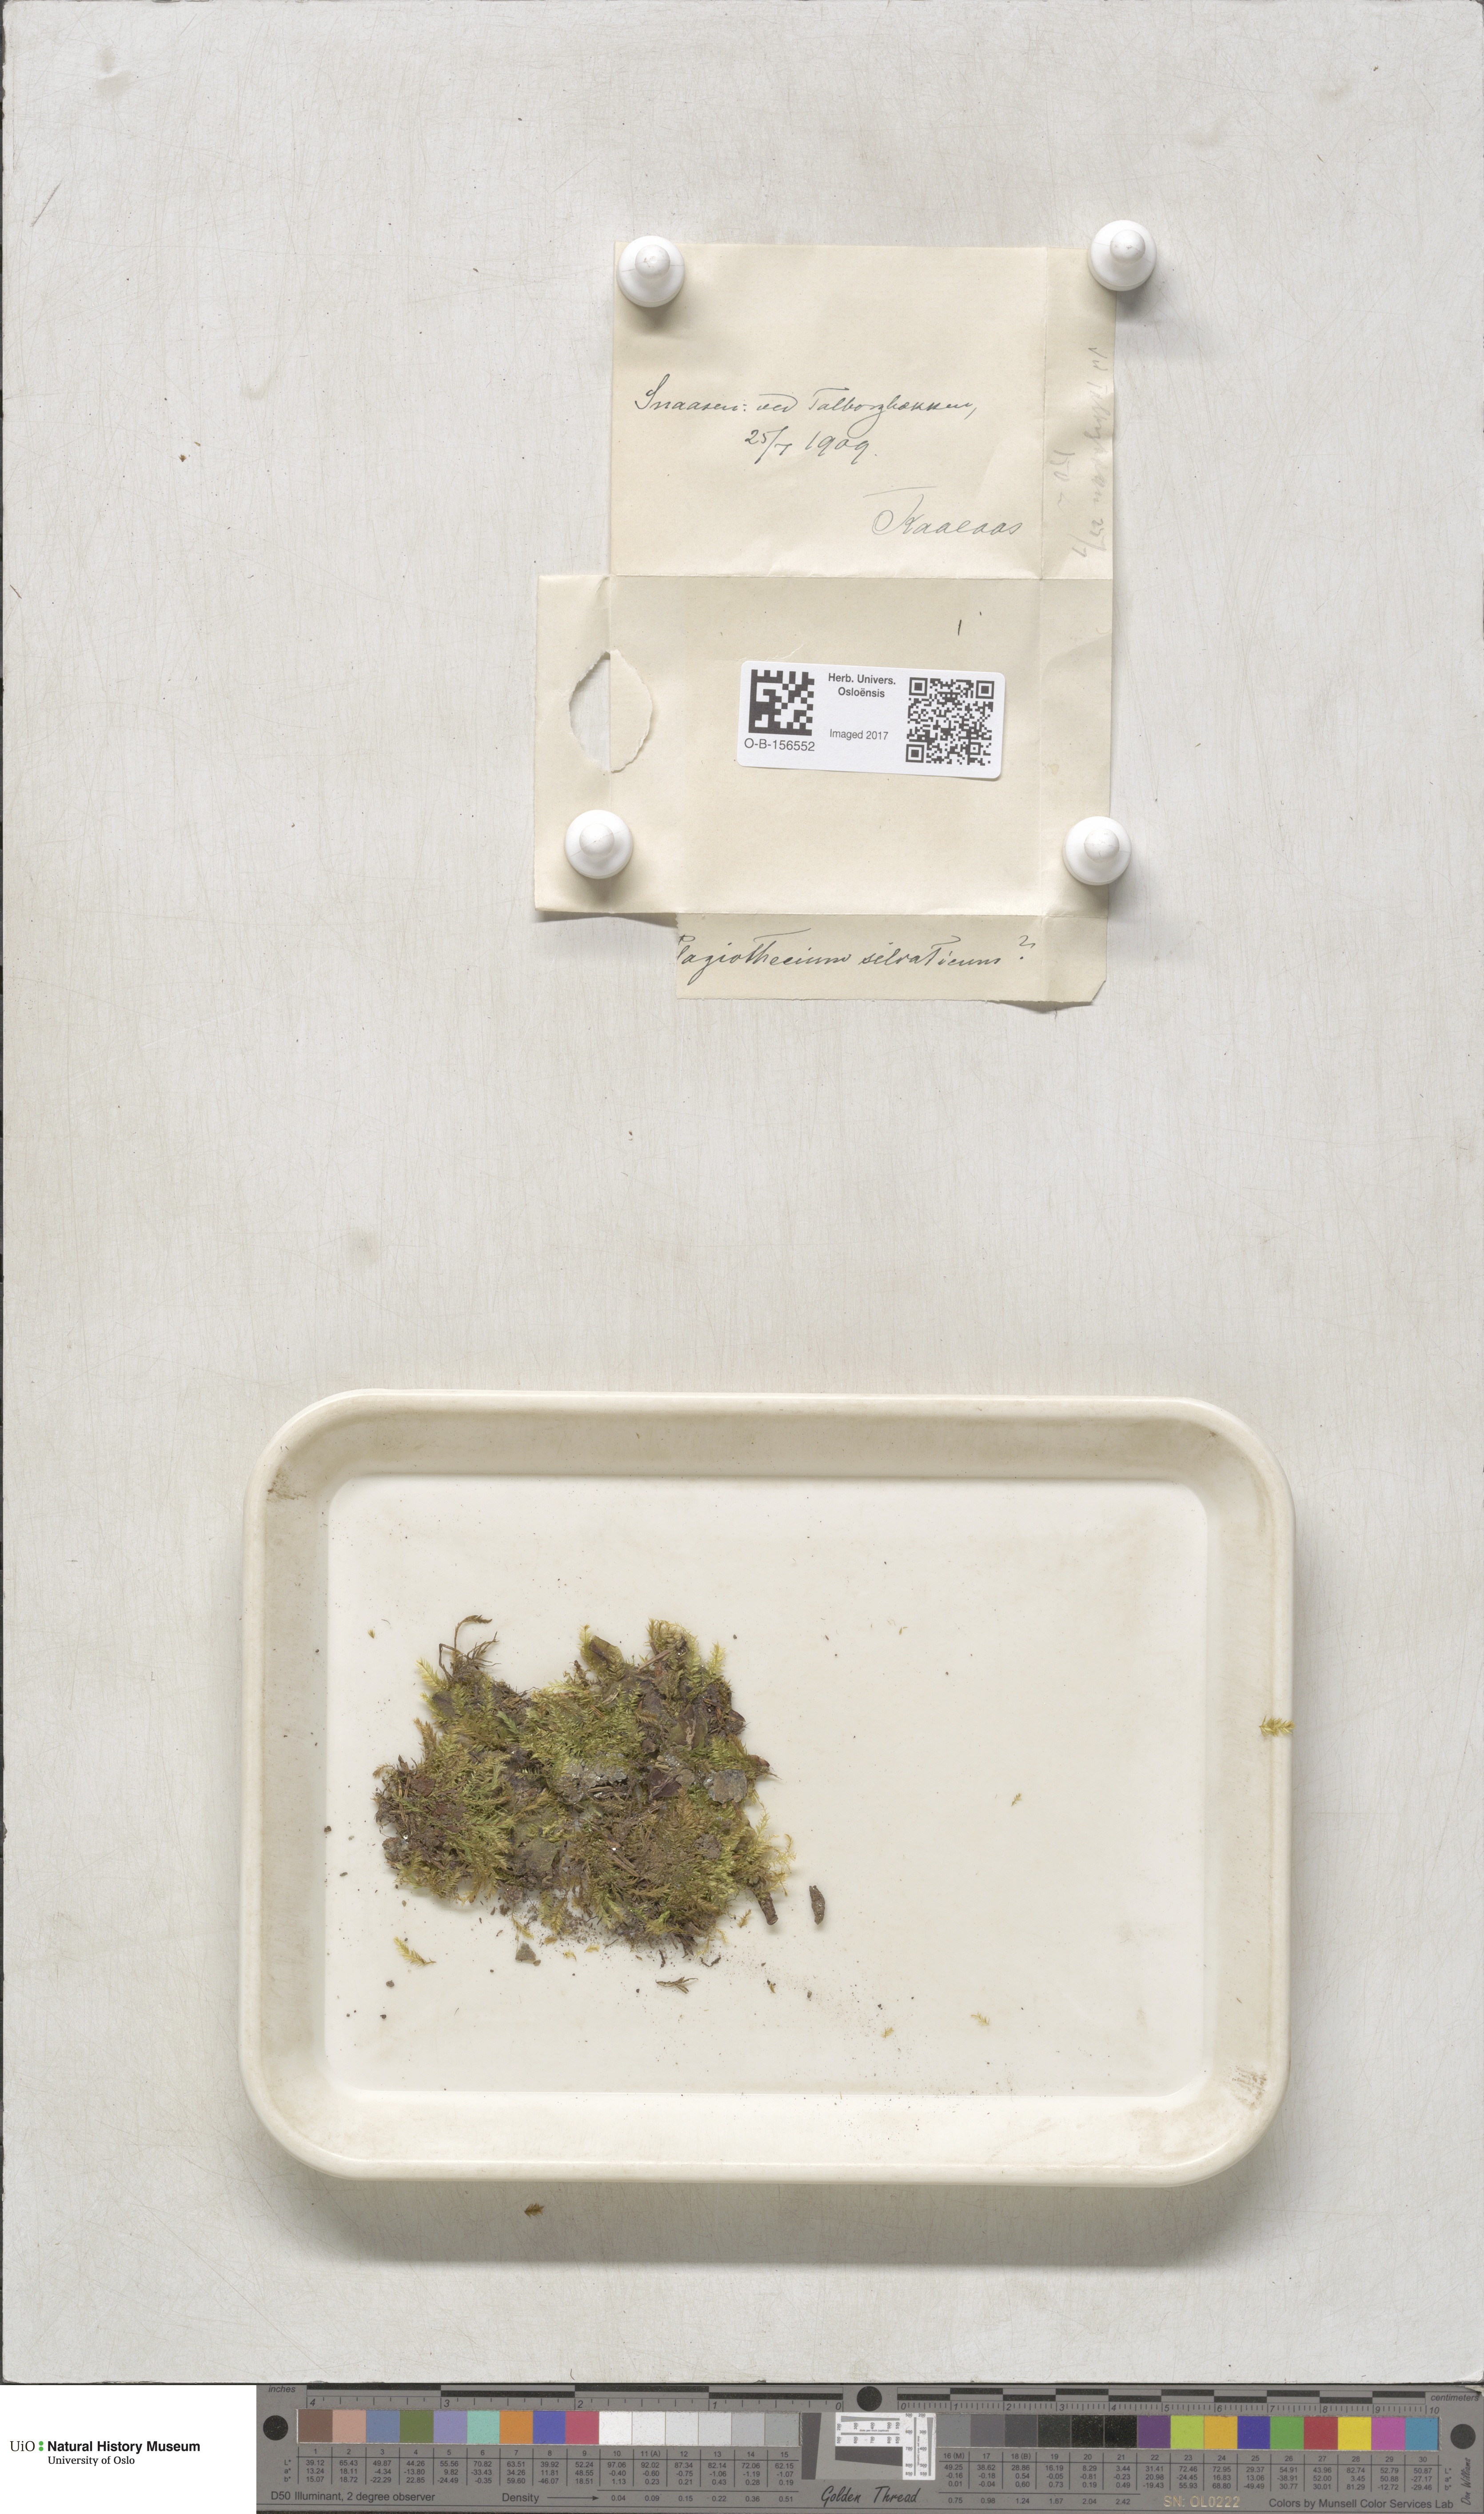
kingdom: Plantae
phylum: Bryophyta
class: Bryopsida
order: Hypnales
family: Plagiotheciaceae
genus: Plagiothecium
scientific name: Plagiothecium nemorale
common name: Woodsy silk-moss
